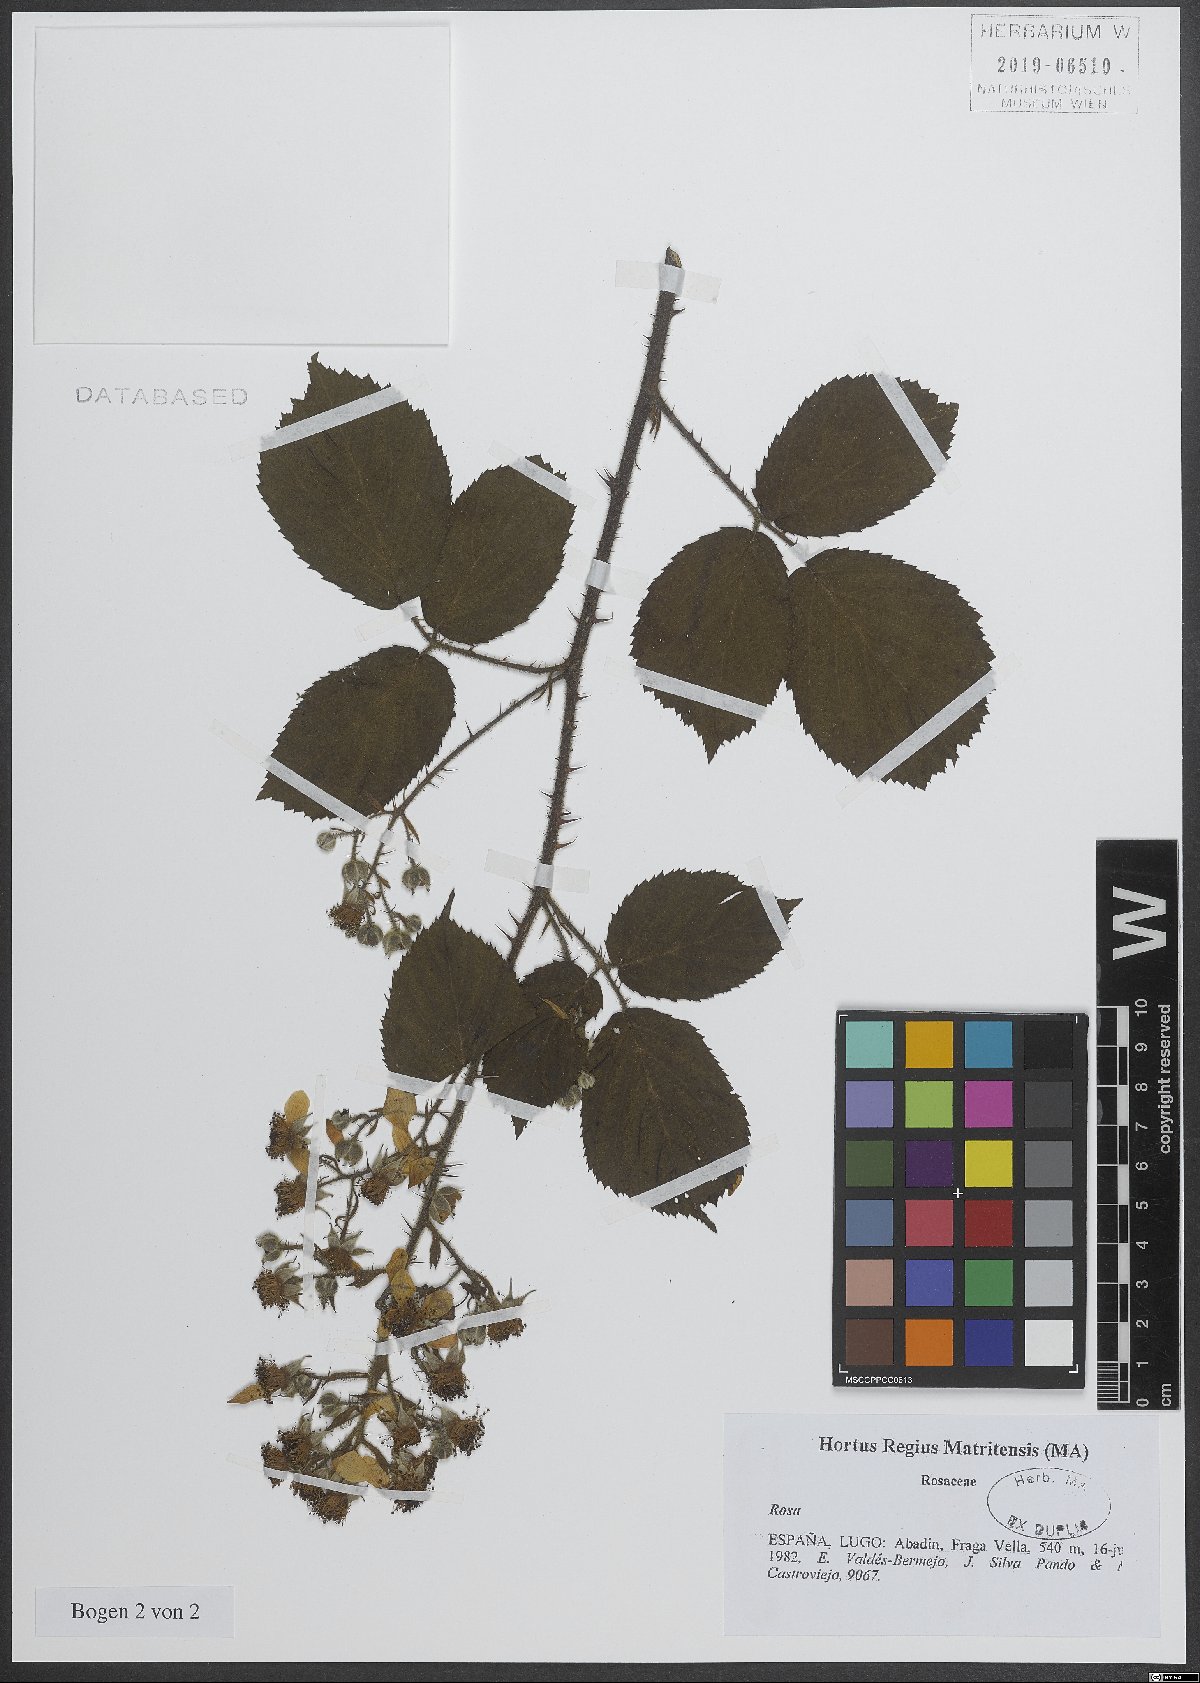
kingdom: Plantae
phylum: Tracheophyta
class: Magnoliopsida
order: Rosales
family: Rosaceae
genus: Rosa
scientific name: Rosa
